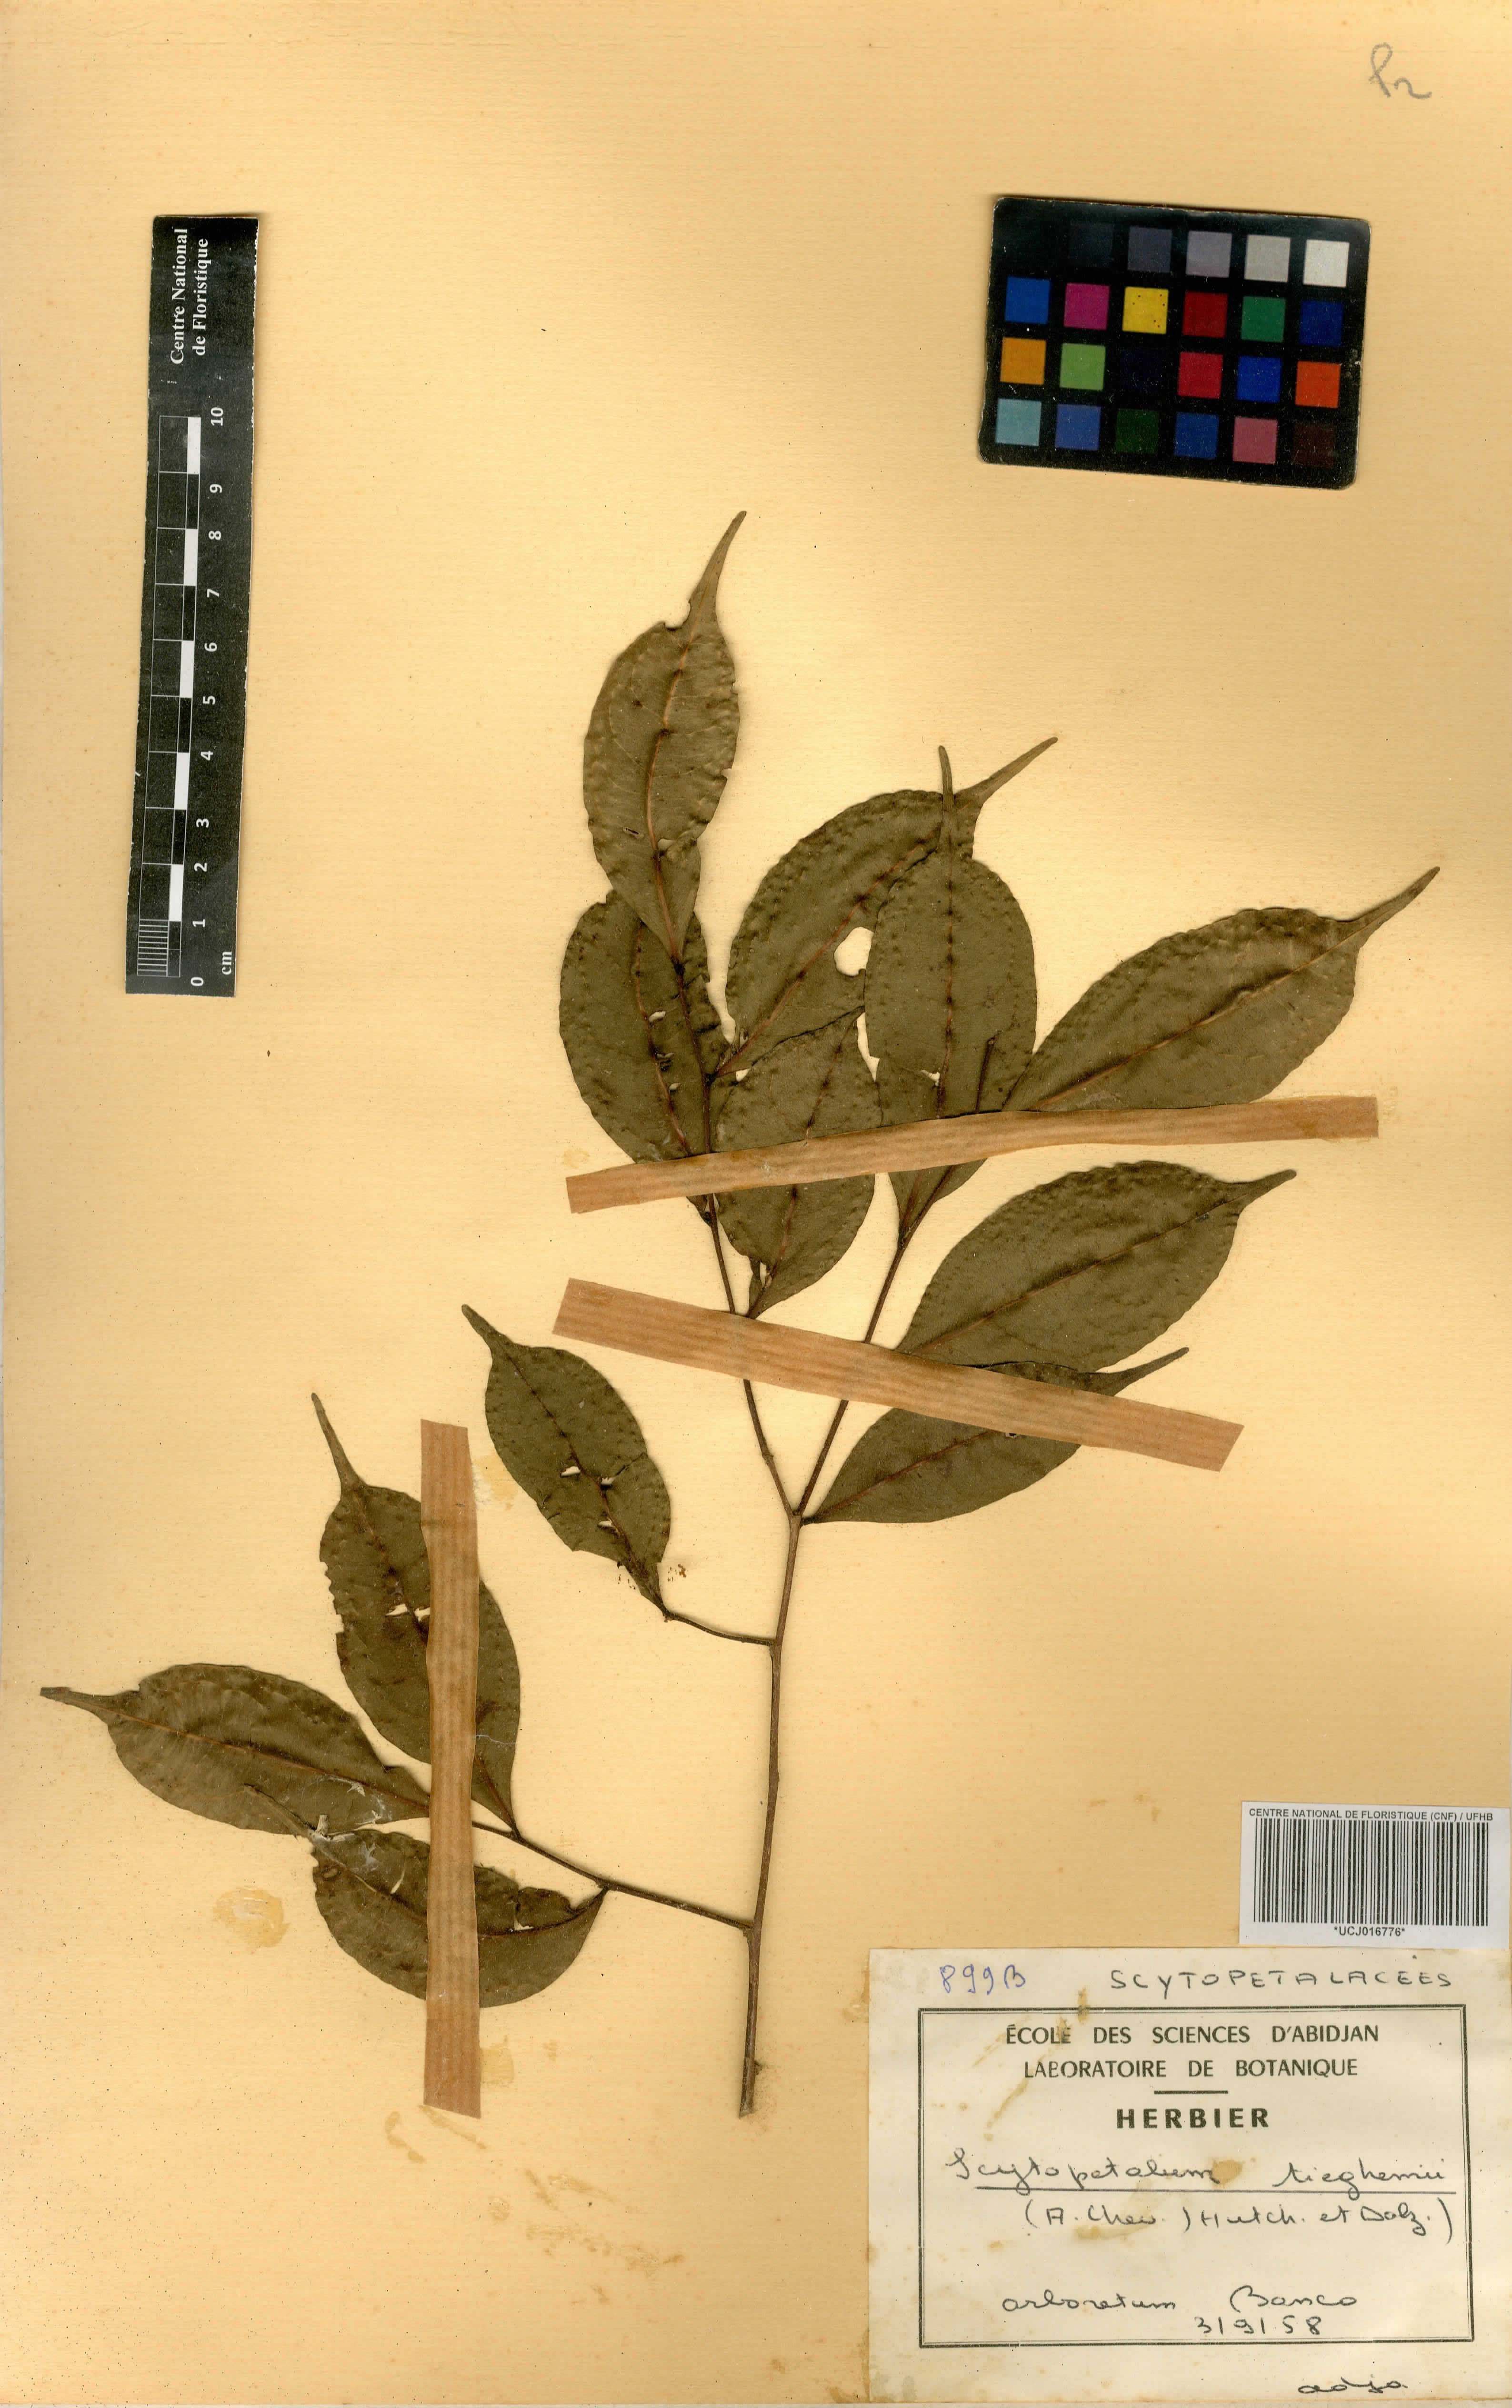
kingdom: Plantae
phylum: Tracheophyta
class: Magnoliopsida
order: Ericales
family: Lecythidaceae
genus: Scytopetalum
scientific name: Scytopetalum tieghemii
